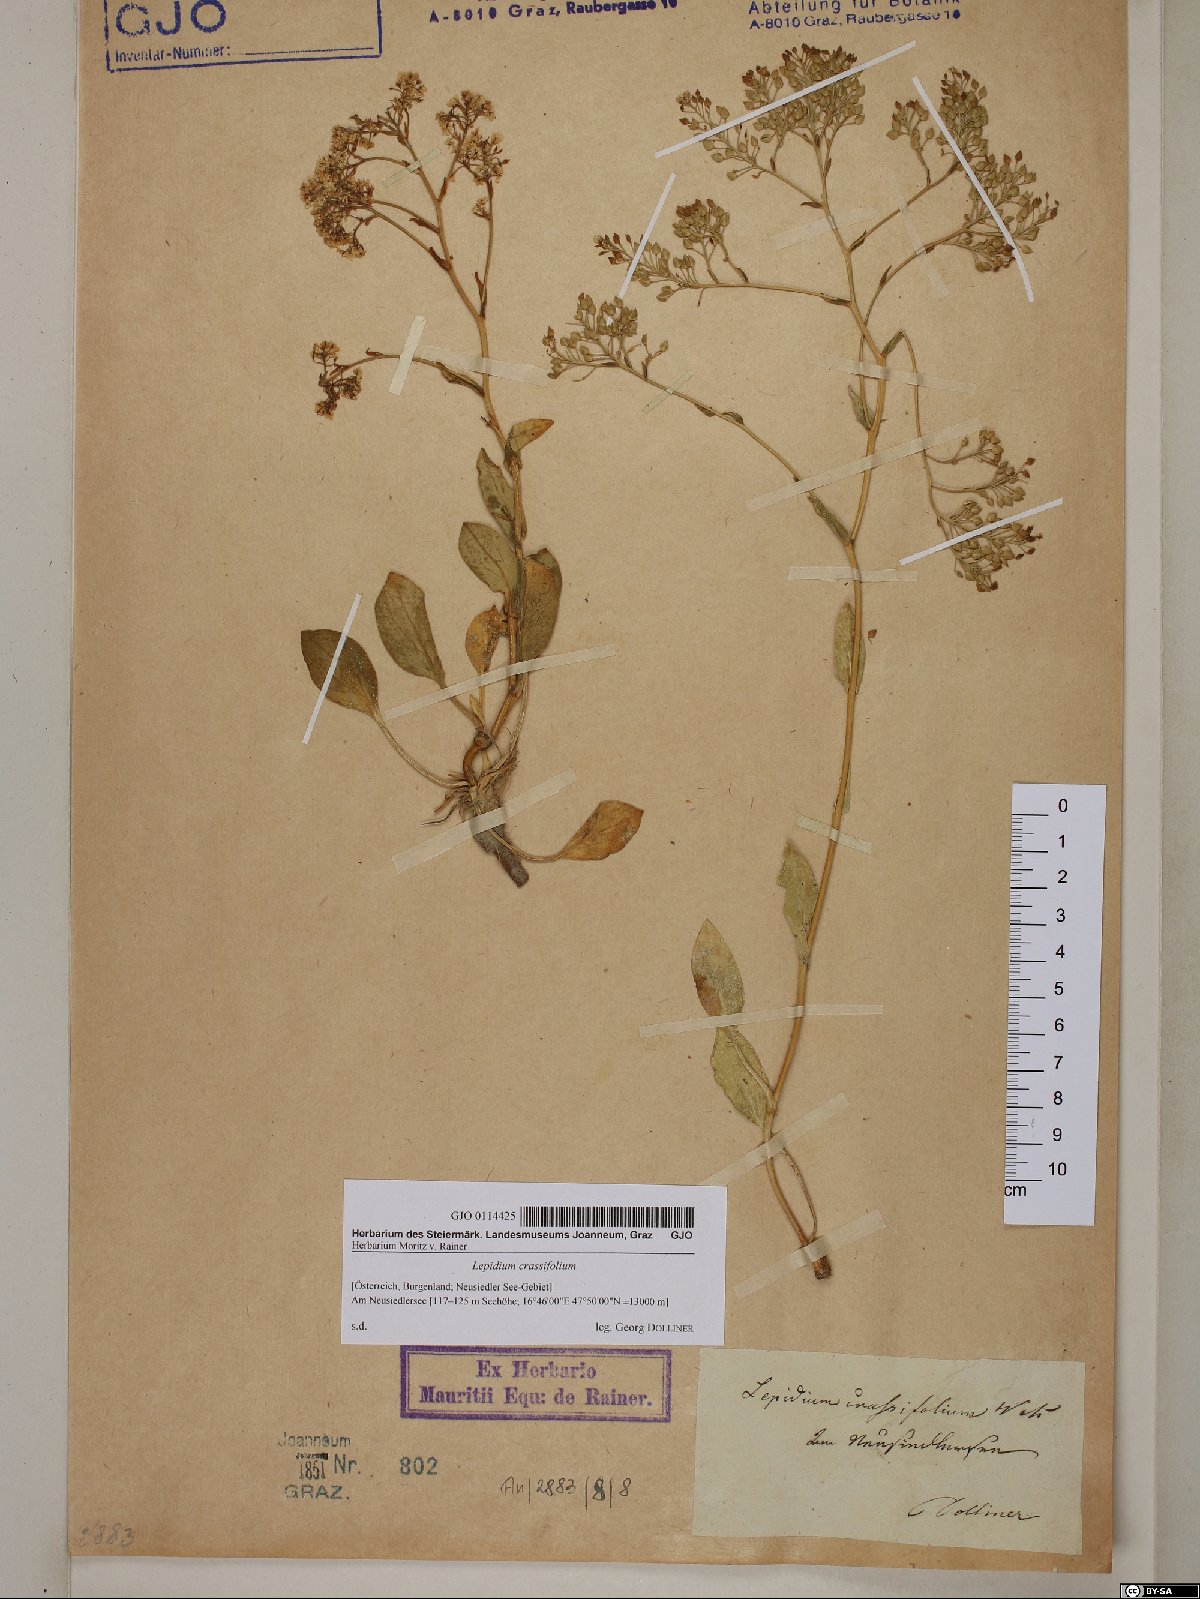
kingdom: Plantae
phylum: Tracheophyta
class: Magnoliopsida
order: Brassicales
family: Brassicaceae
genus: Lepidium
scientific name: Lepidium cartilagineum
